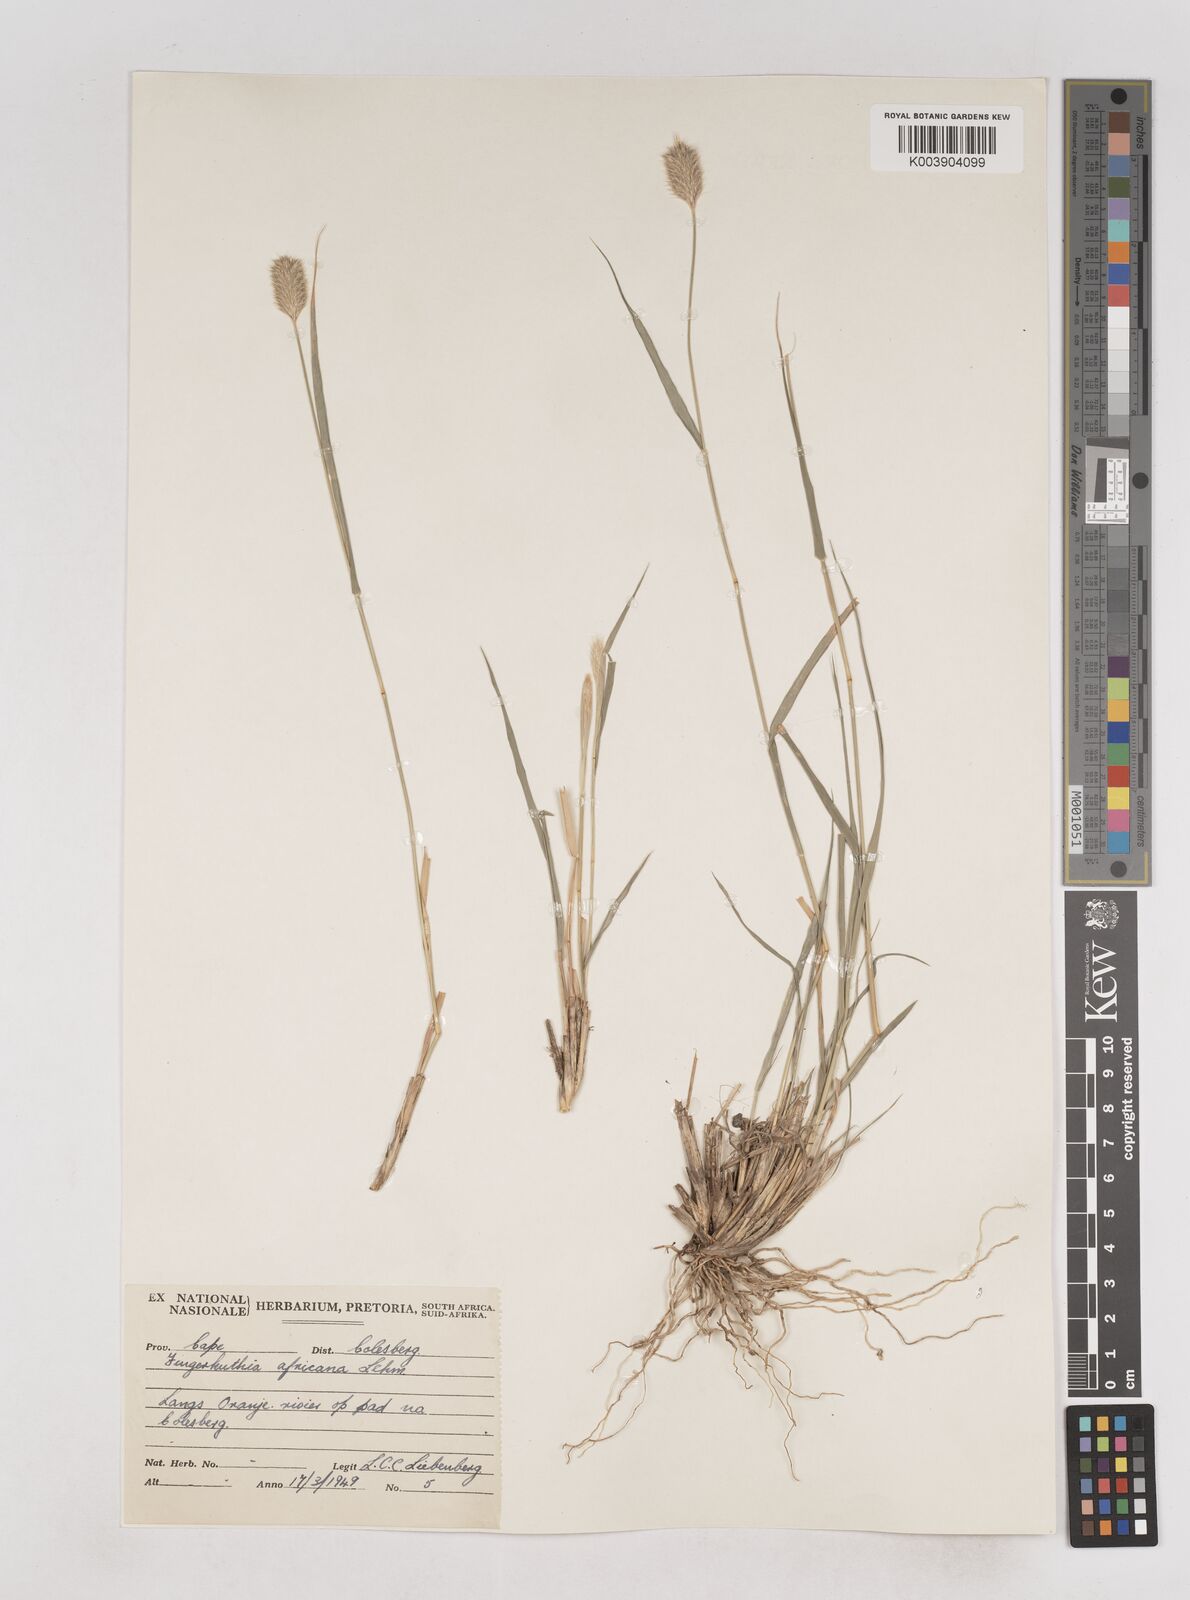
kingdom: Plantae
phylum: Tracheophyta
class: Liliopsida
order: Poales
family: Poaceae
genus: Fingerhuthia
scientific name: Fingerhuthia africana
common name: Zulu fescue
